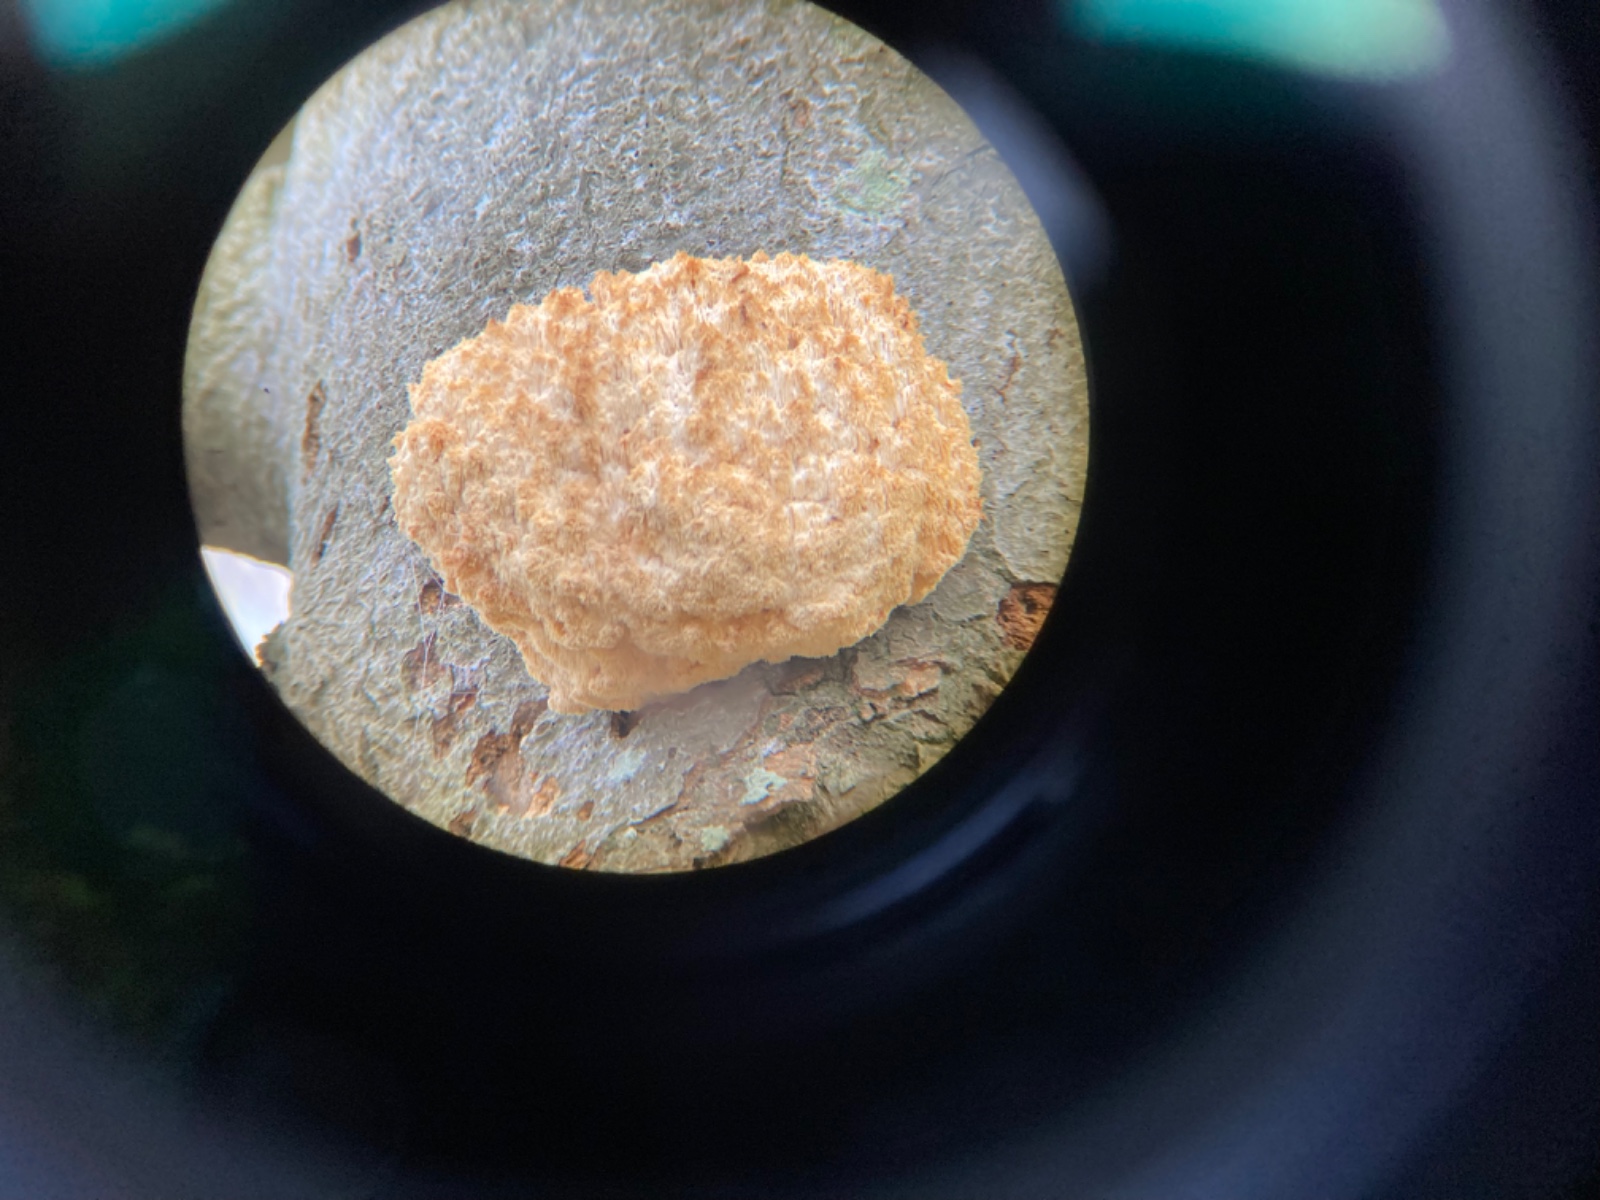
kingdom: Fungi
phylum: Basidiomycota
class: Agaricomycetes
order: Russulales
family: Hericiaceae
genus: Hericium
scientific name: Hericium coralloides
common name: koralpigsvamp
